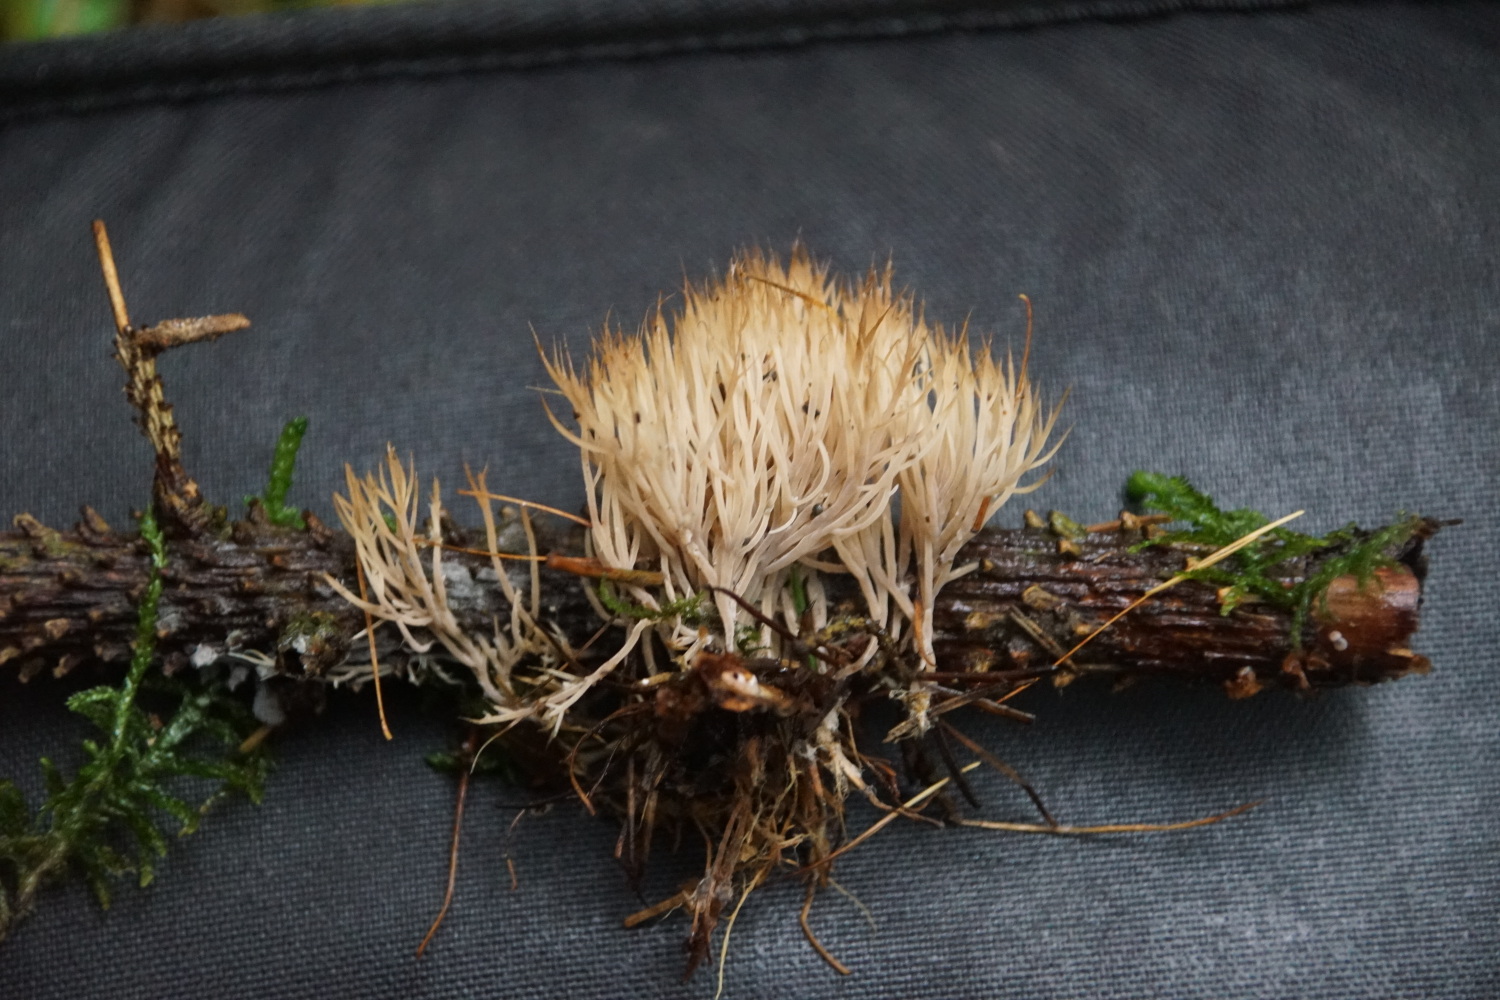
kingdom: Fungi
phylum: Basidiomycota
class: Agaricomycetes
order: Agaricales
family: Pterulaceae
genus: Pterula
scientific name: Pterula multifida
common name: busket fjerkølle
